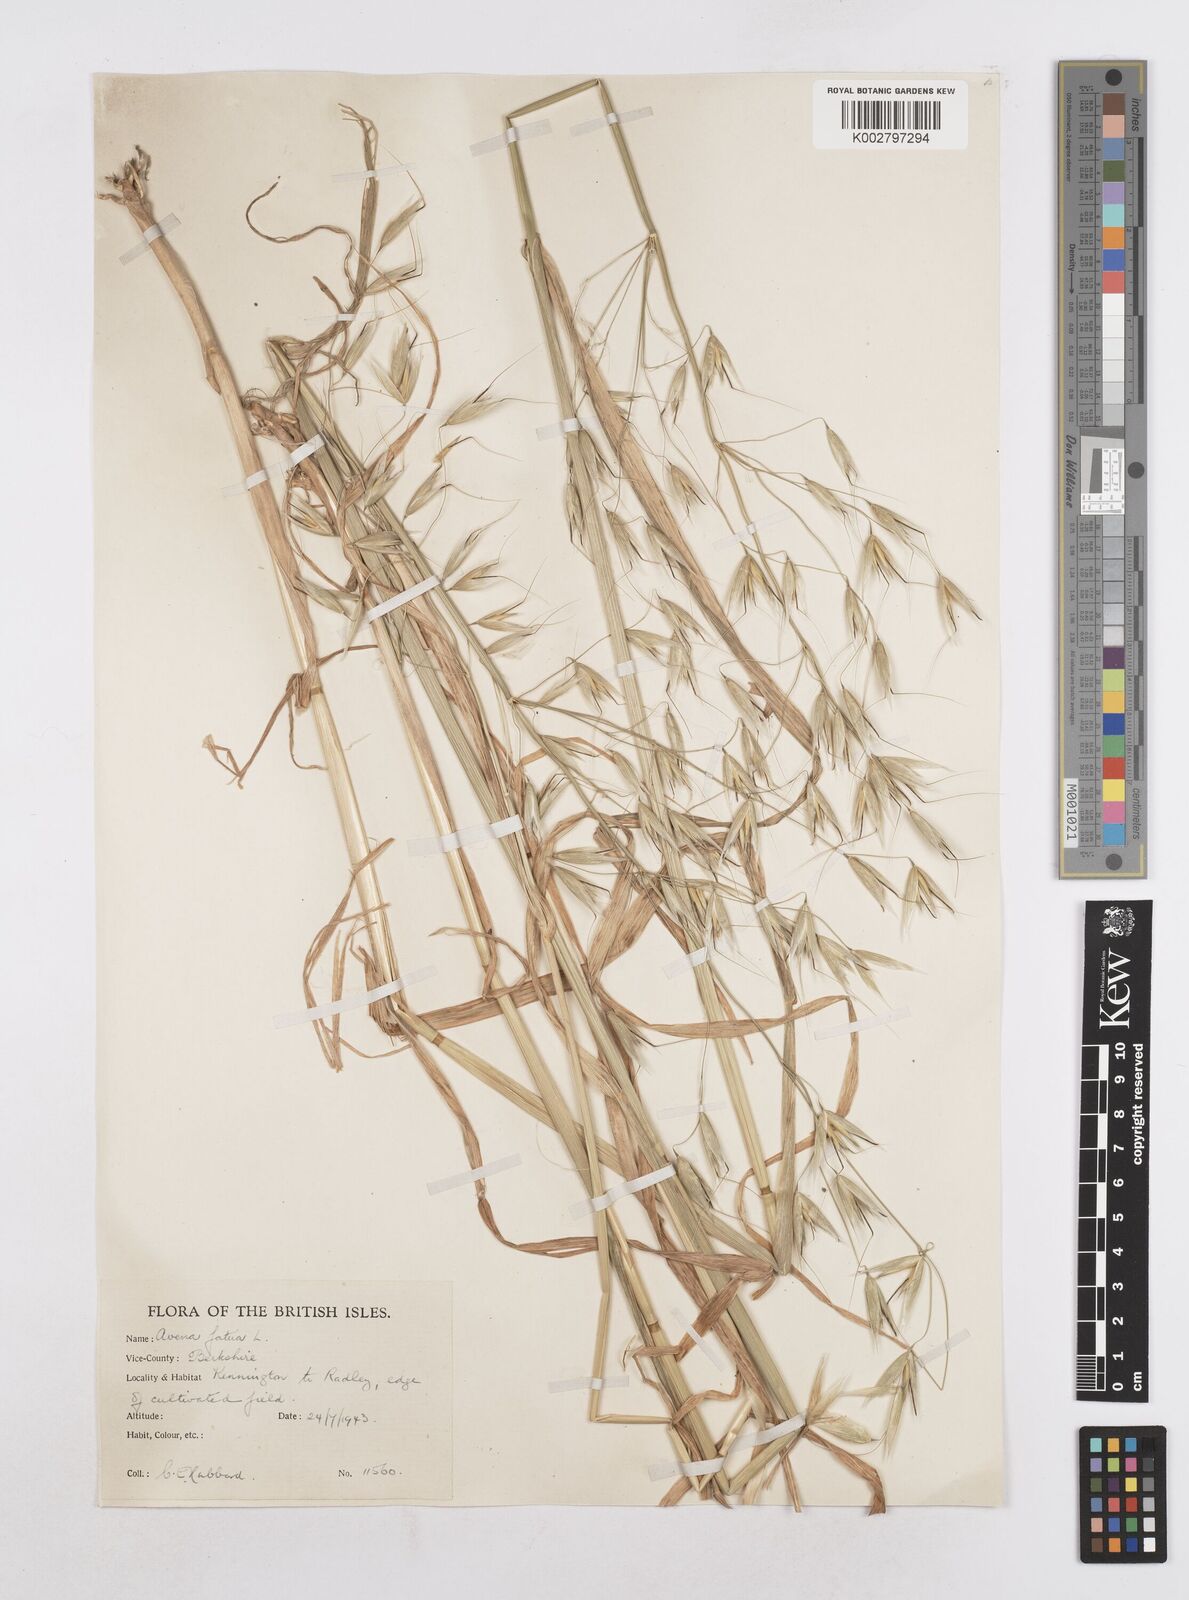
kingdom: Plantae
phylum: Tracheophyta
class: Liliopsida
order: Poales
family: Poaceae
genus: Avena
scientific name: Avena fatua
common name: Wild oat
